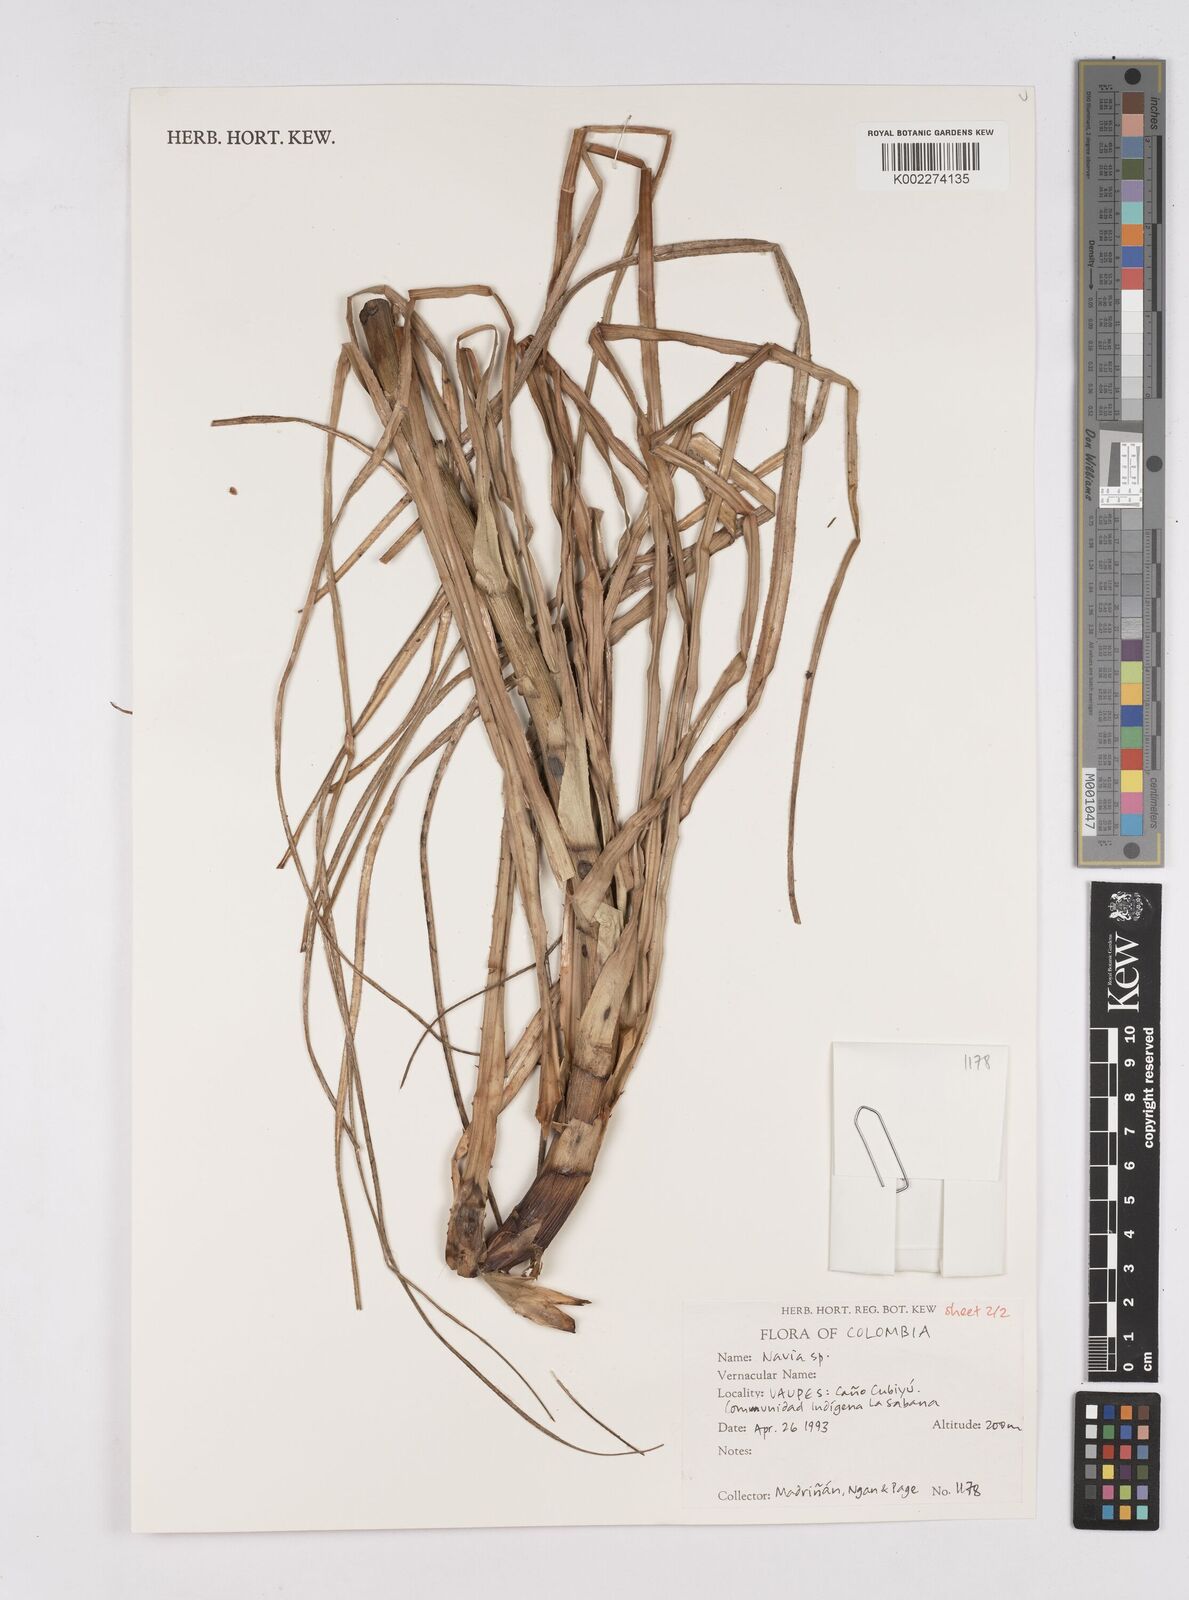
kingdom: Plantae
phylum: Tracheophyta
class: Liliopsida
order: Poales
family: Bromeliaceae
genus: Navia
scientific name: Navia
